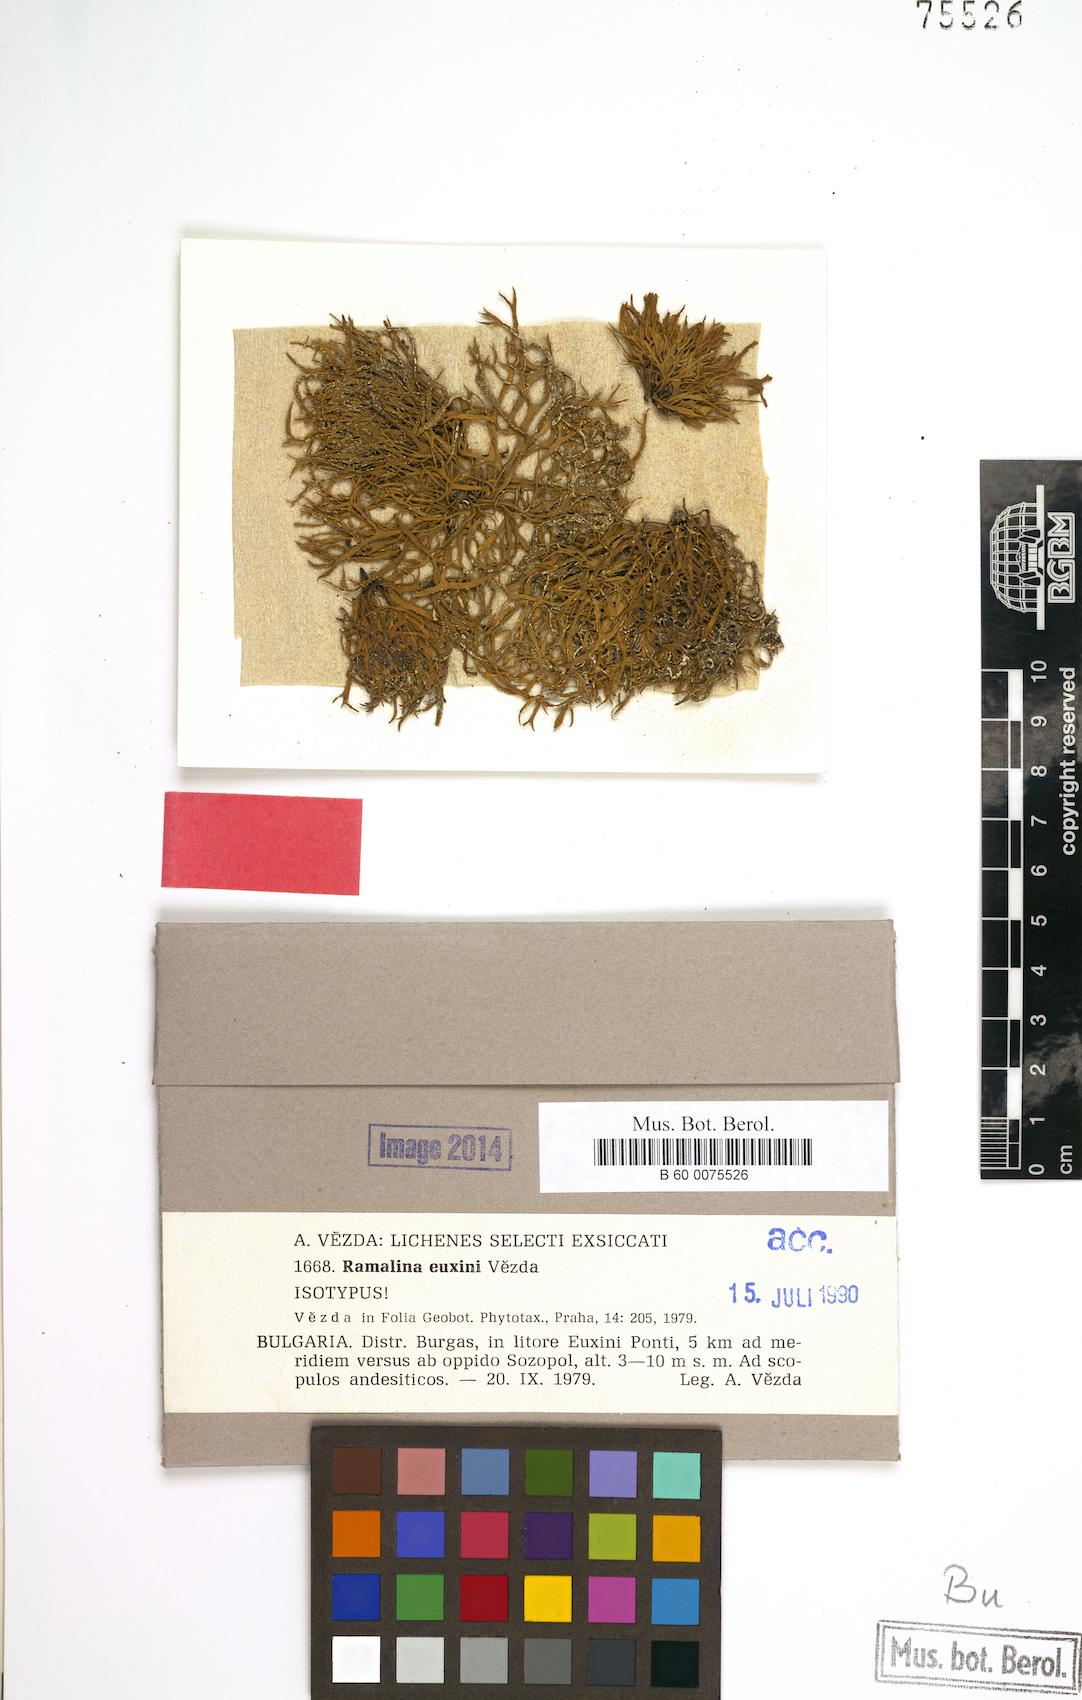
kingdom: Fungi
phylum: Ascomycota
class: Lecanoromycetes
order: Lecanorales
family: Ramalinaceae
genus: Ramalina
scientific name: Ramalina euxini
